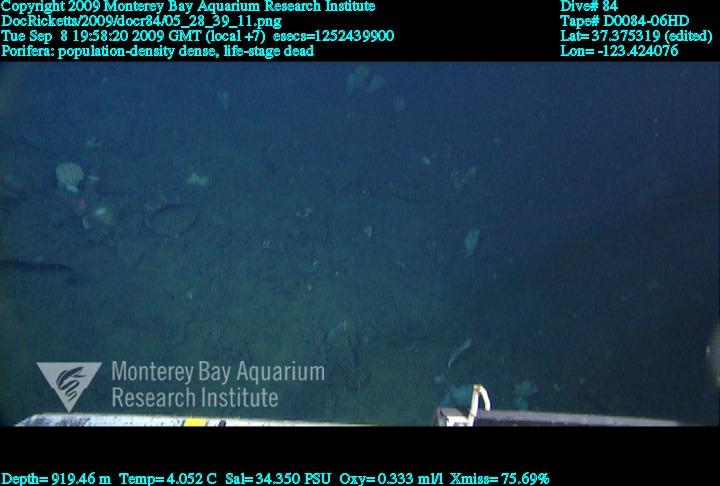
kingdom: Animalia
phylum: Porifera
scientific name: Porifera
